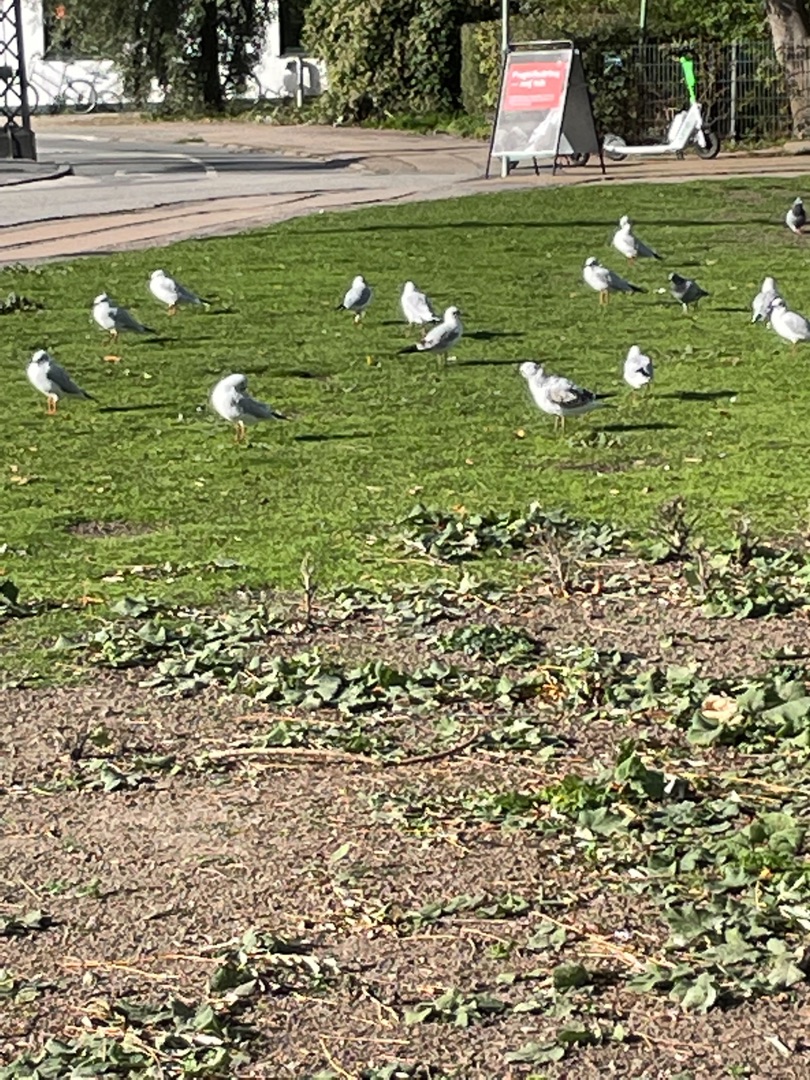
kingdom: Animalia
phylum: Chordata
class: Aves
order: Charadriiformes
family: Laridae
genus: Chroicocephalus
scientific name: Chroicocephalus ridibundus
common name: Hættemåge
